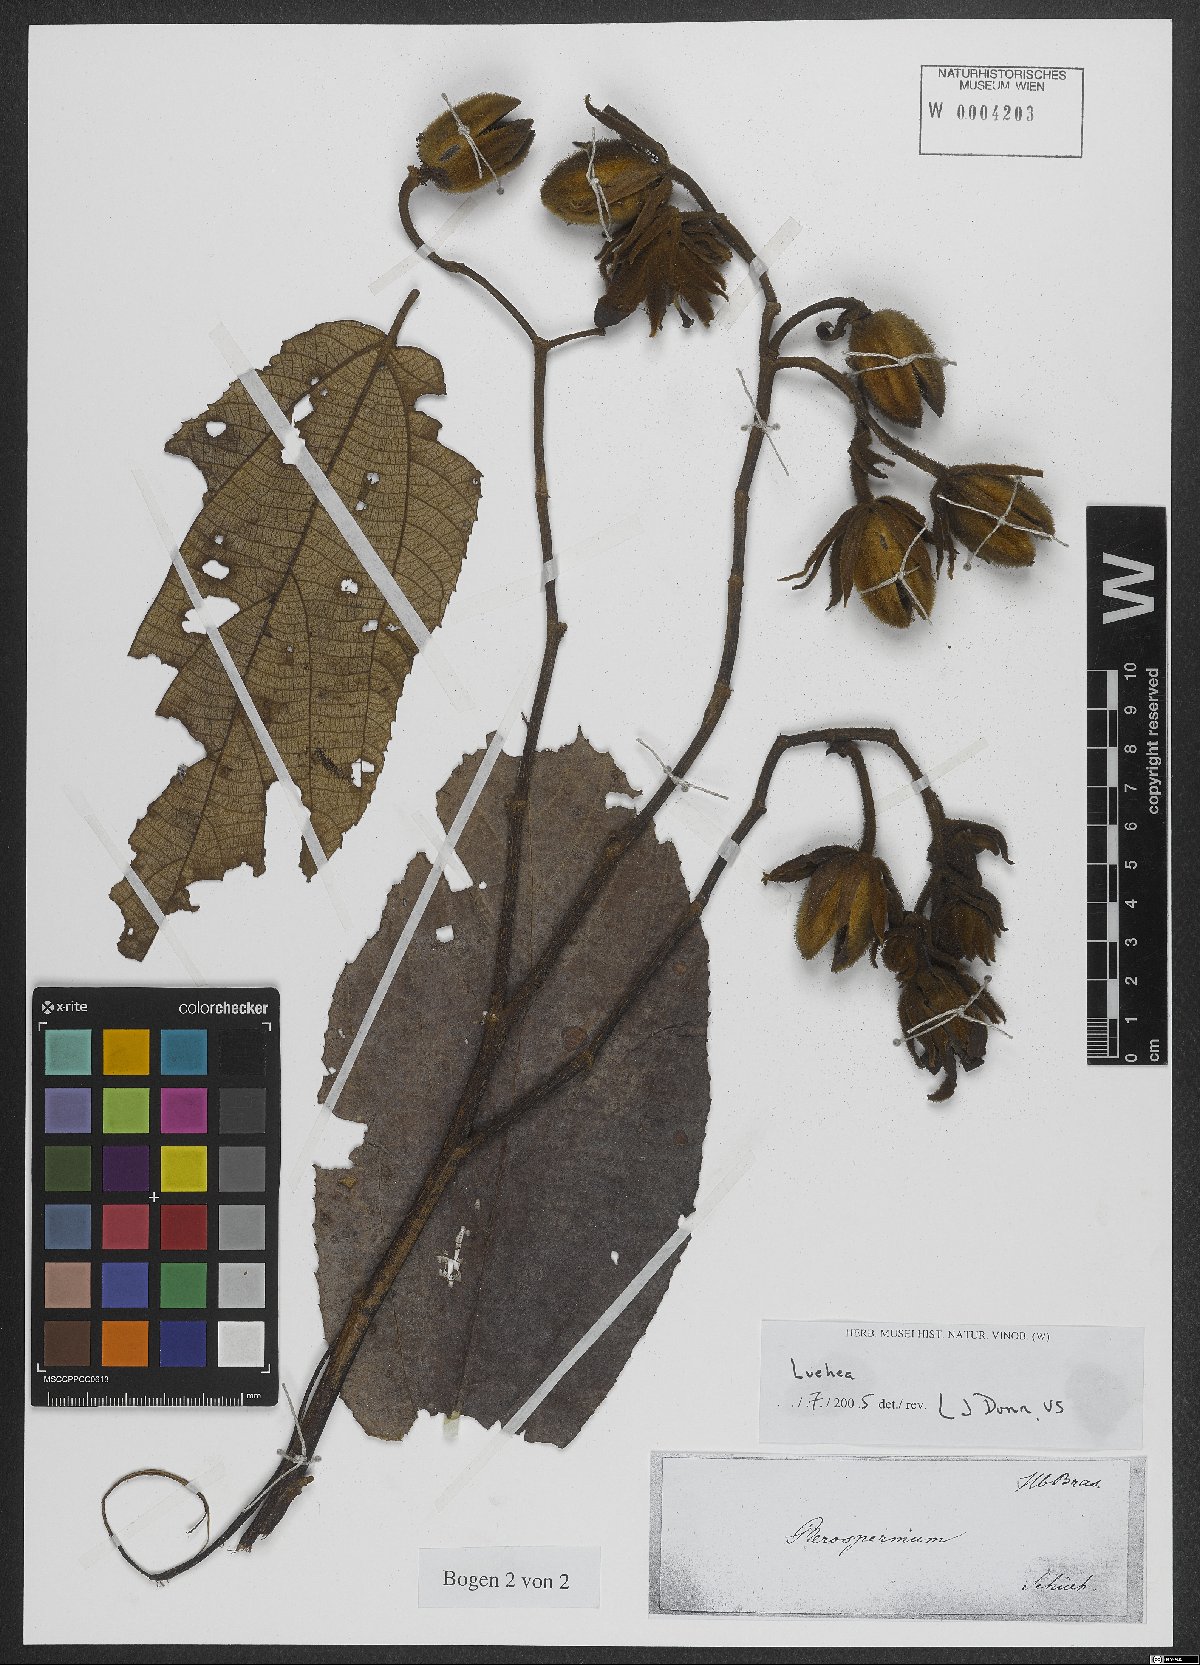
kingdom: Plantae
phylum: Tracheophyta
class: Magnoliopsida
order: Malvales
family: Malvaceae
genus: Luehea
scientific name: Luehea
